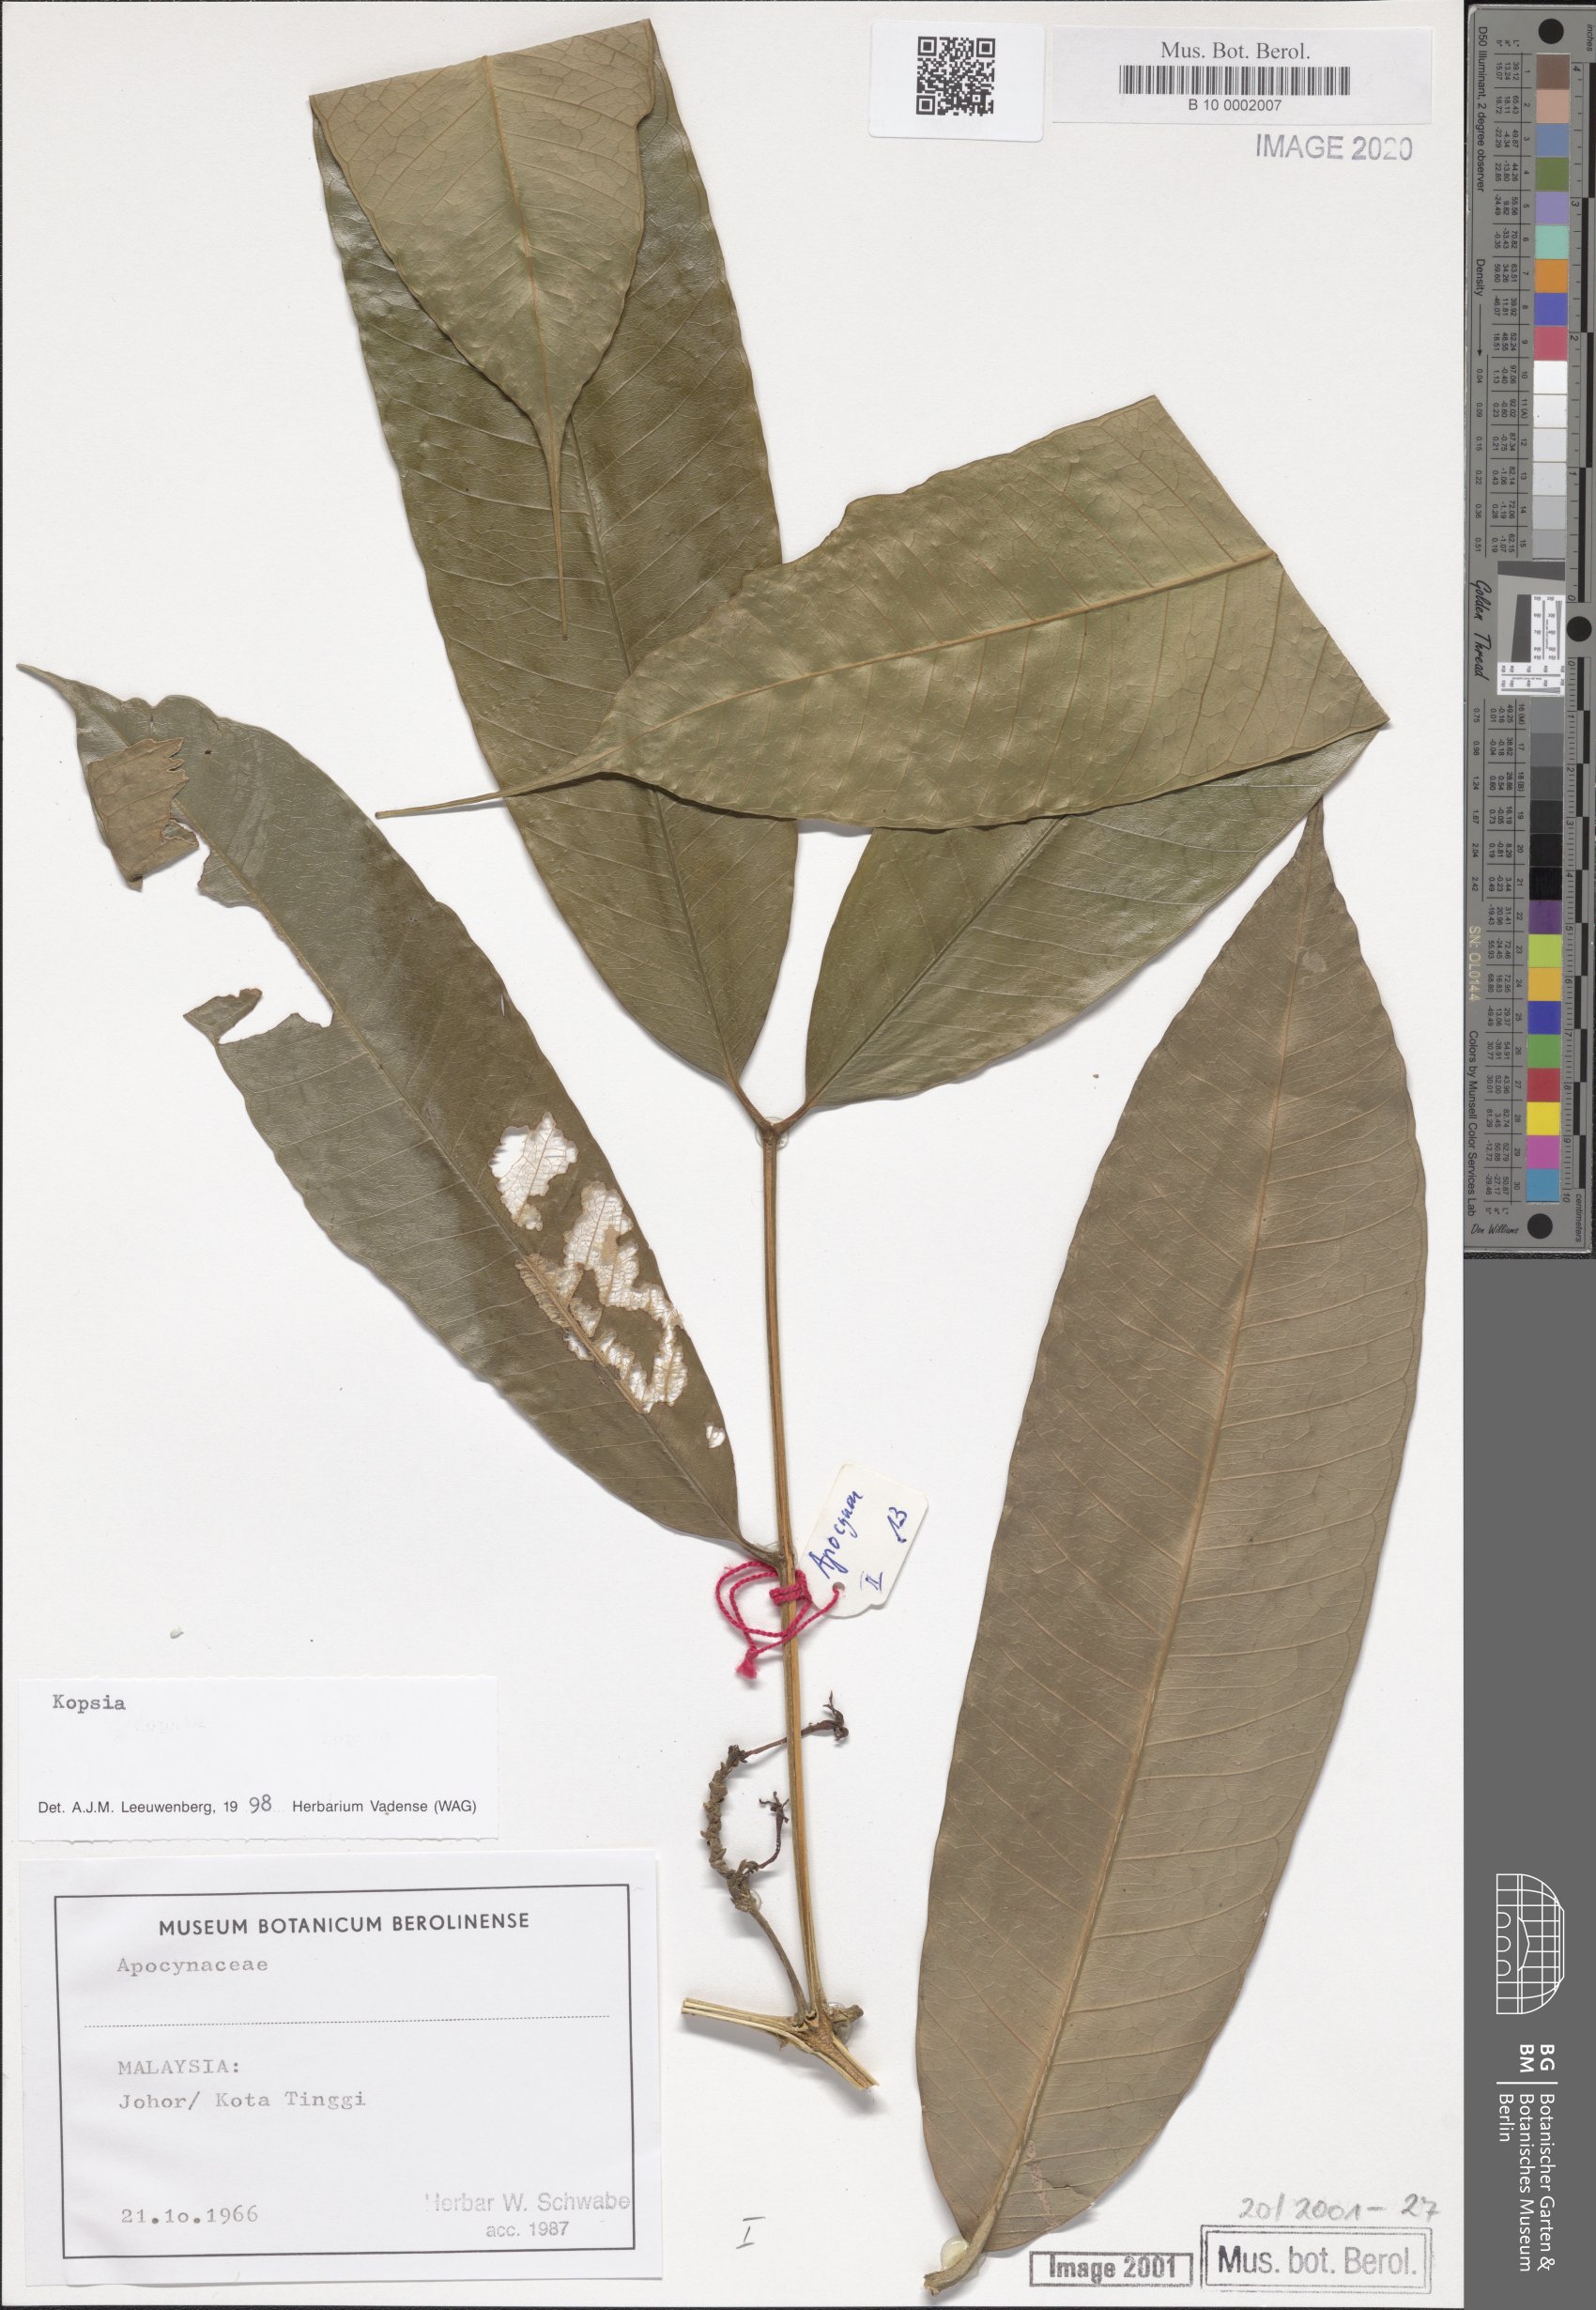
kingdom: Plantae
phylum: Tracheophyta
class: Magnoliopsida
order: Gentianales
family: Apocynaceae
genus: Kopsia
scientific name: Kopsia
